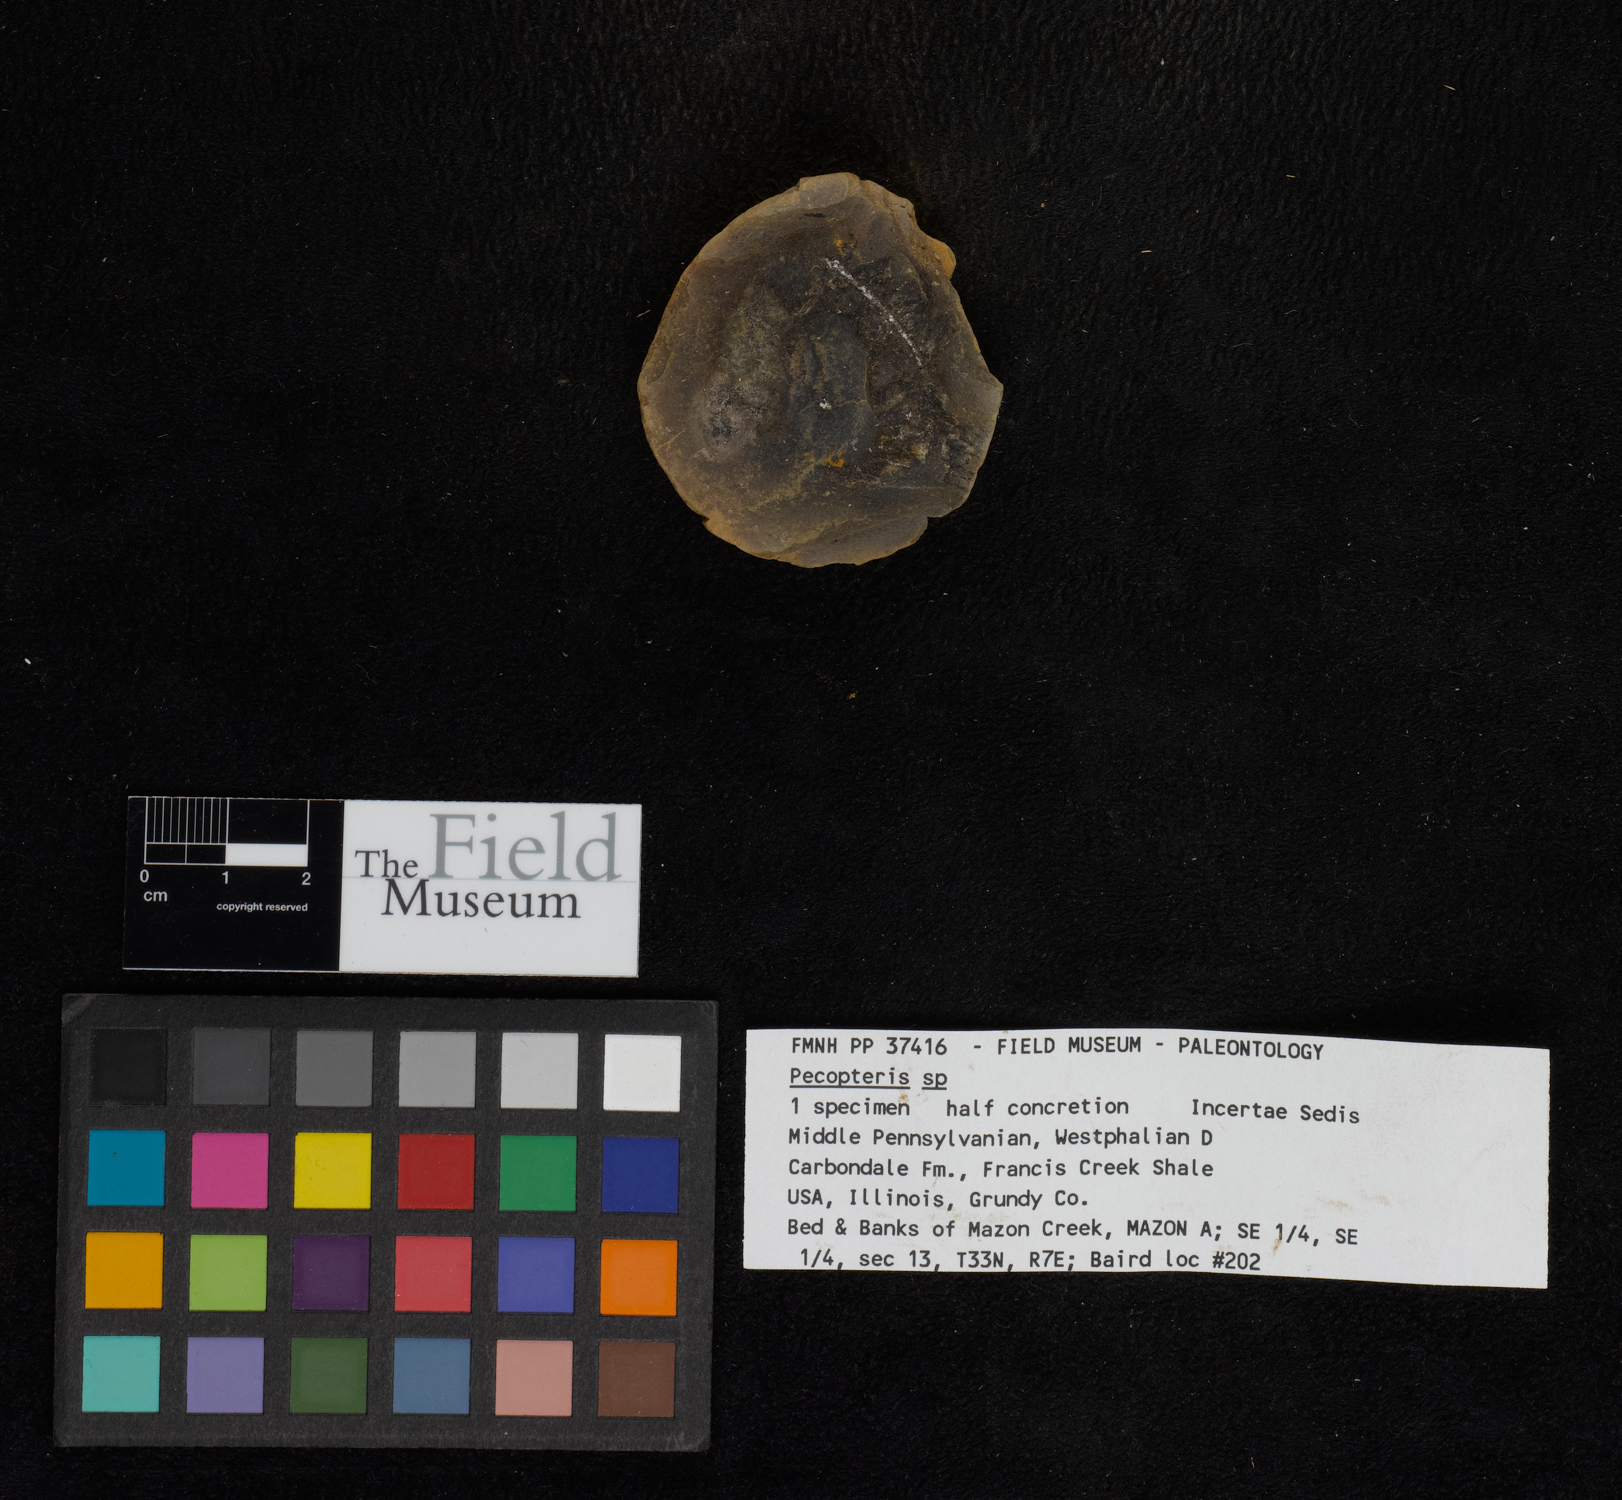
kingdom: Plantae
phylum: Tracheophyta
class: Polypodiopsida
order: Marattiales
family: Asterothecaceae
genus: Pecopteris
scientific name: Pecopteris
